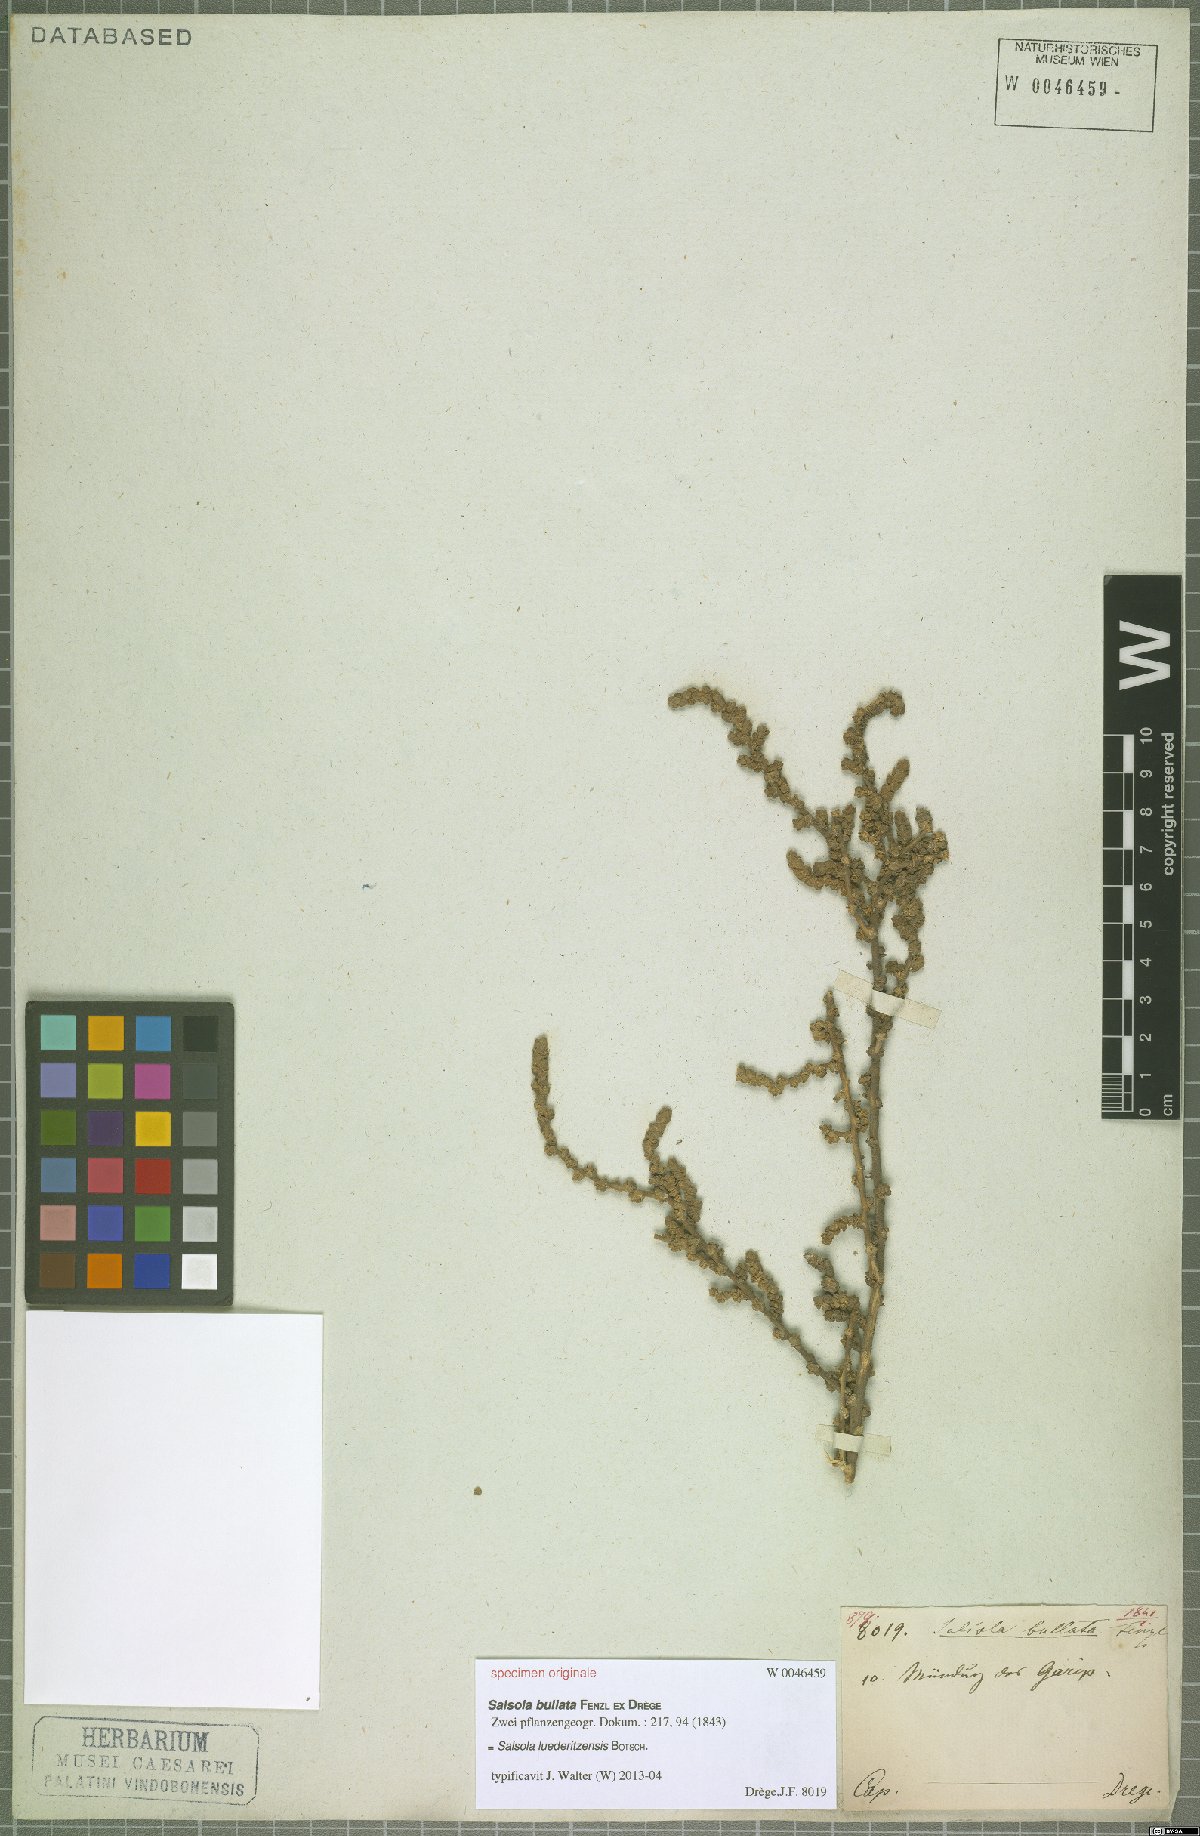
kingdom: Plantae
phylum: Tracheophyta
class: Magnoliopsida
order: Caryophyllales
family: Amaranthaceae
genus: Caroxylon
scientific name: Caroxylon nollothense
